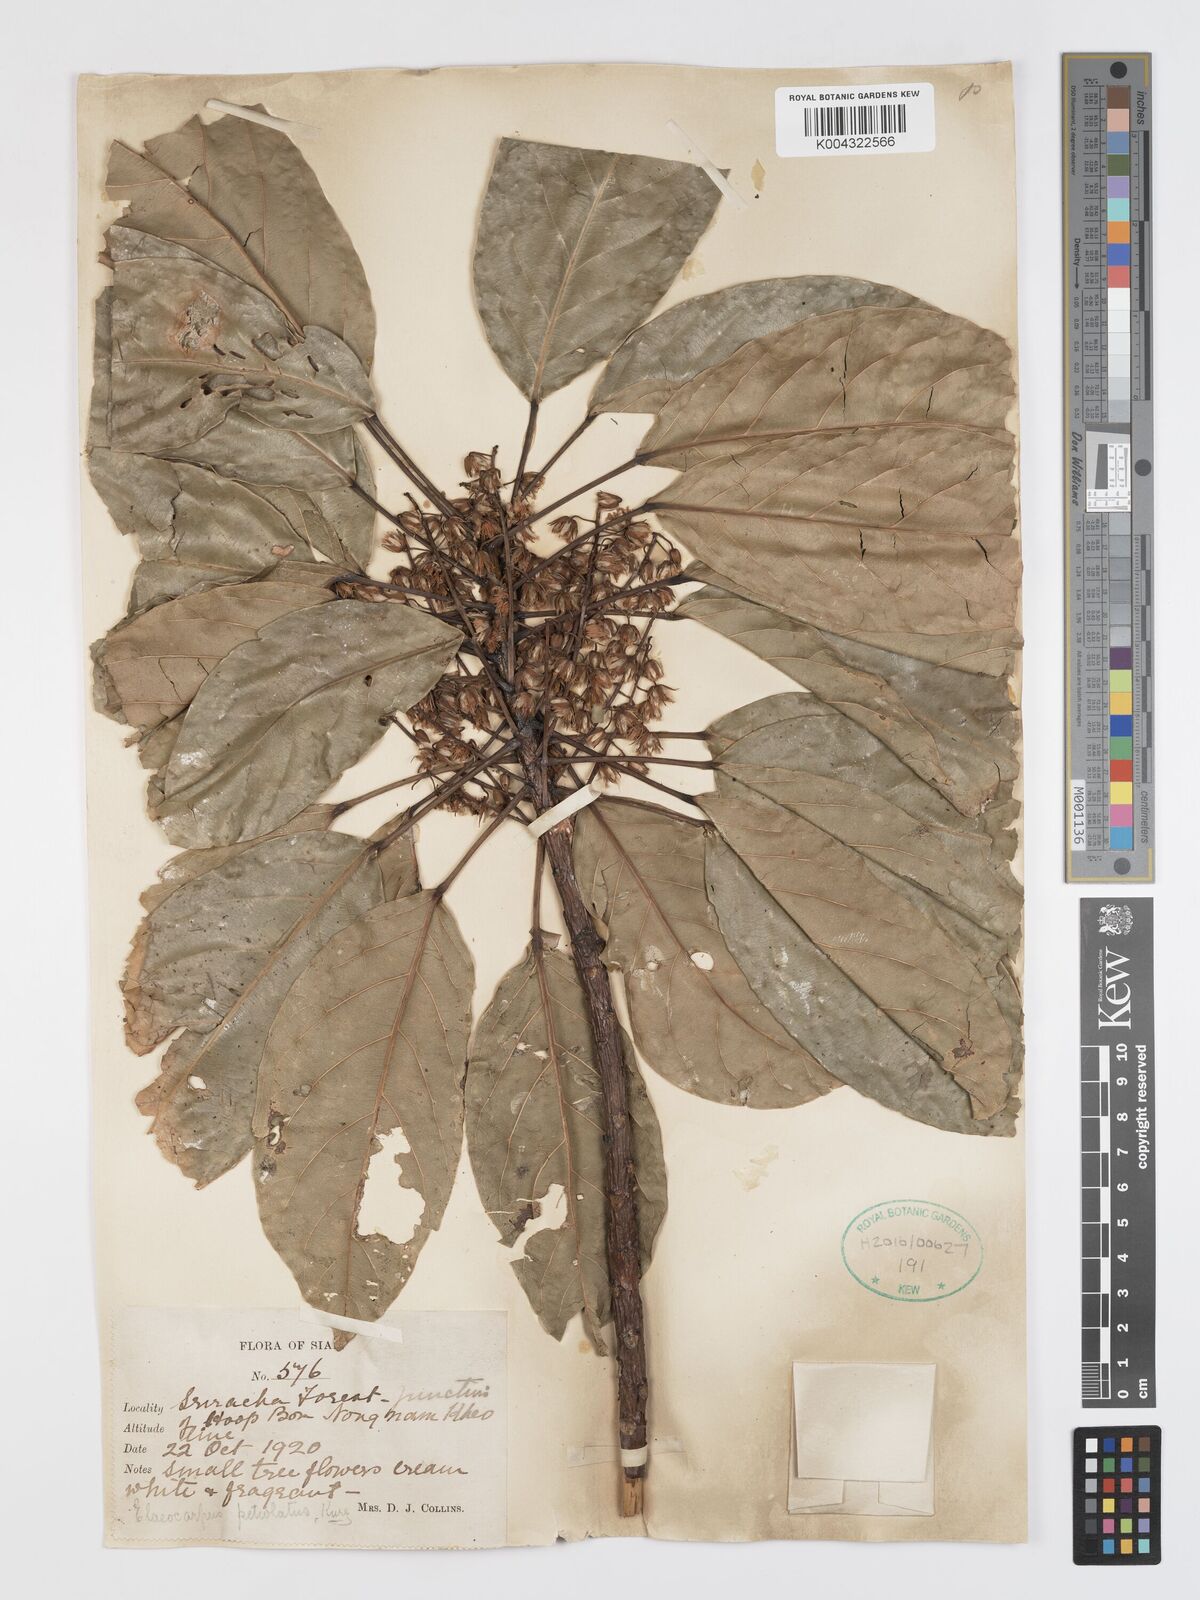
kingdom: Plantae
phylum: Tracheophyta
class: Magnoliopsida
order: Oxalidales
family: Elaeocarpaceae
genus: Elaeocarpus
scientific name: Elaeocarpus petiolatus
